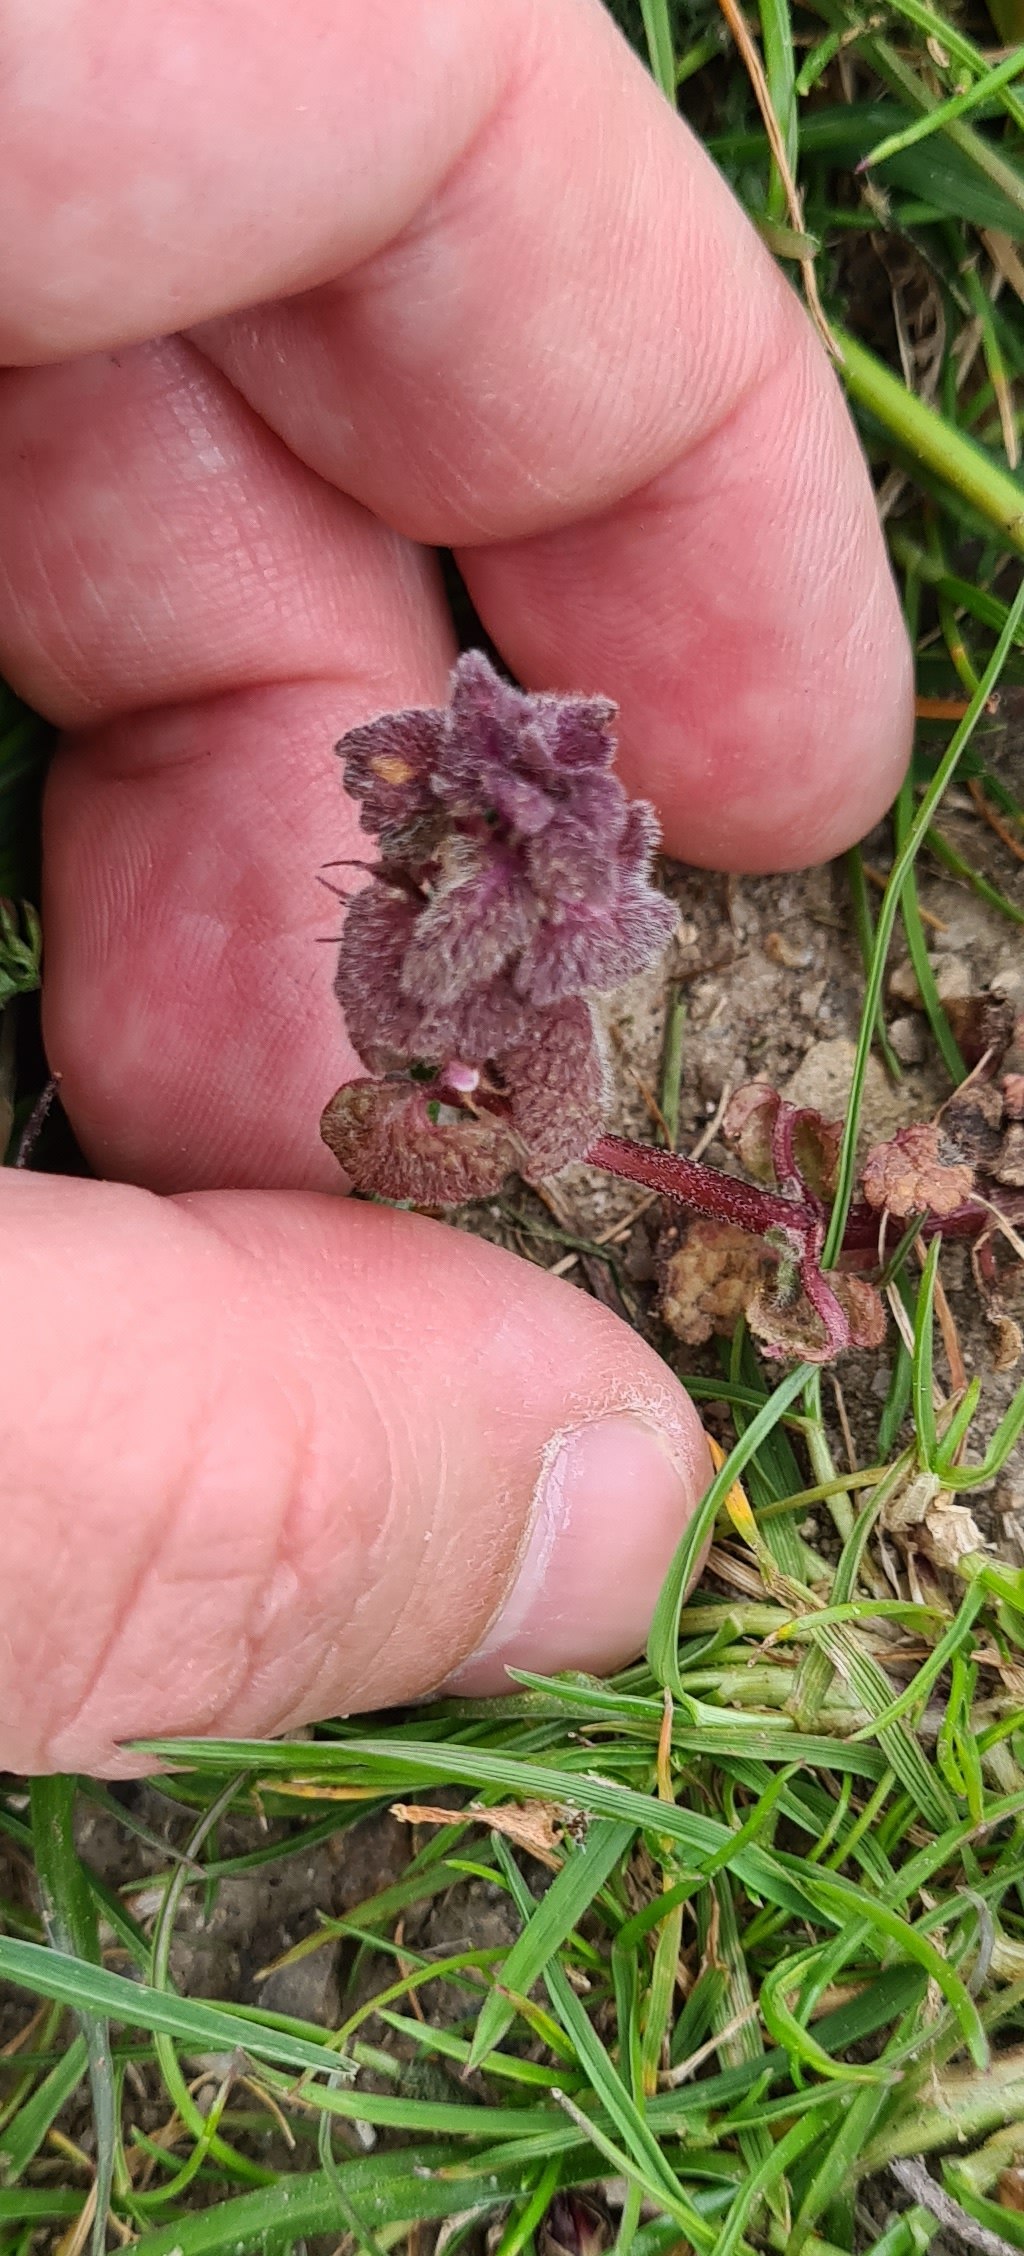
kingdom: Plantae
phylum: Tracheophyta
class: Magnoliopsida
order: Lamiales
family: Lamiaceae
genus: Lamium
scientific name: Lamium purpureum
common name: Rød tvetand
